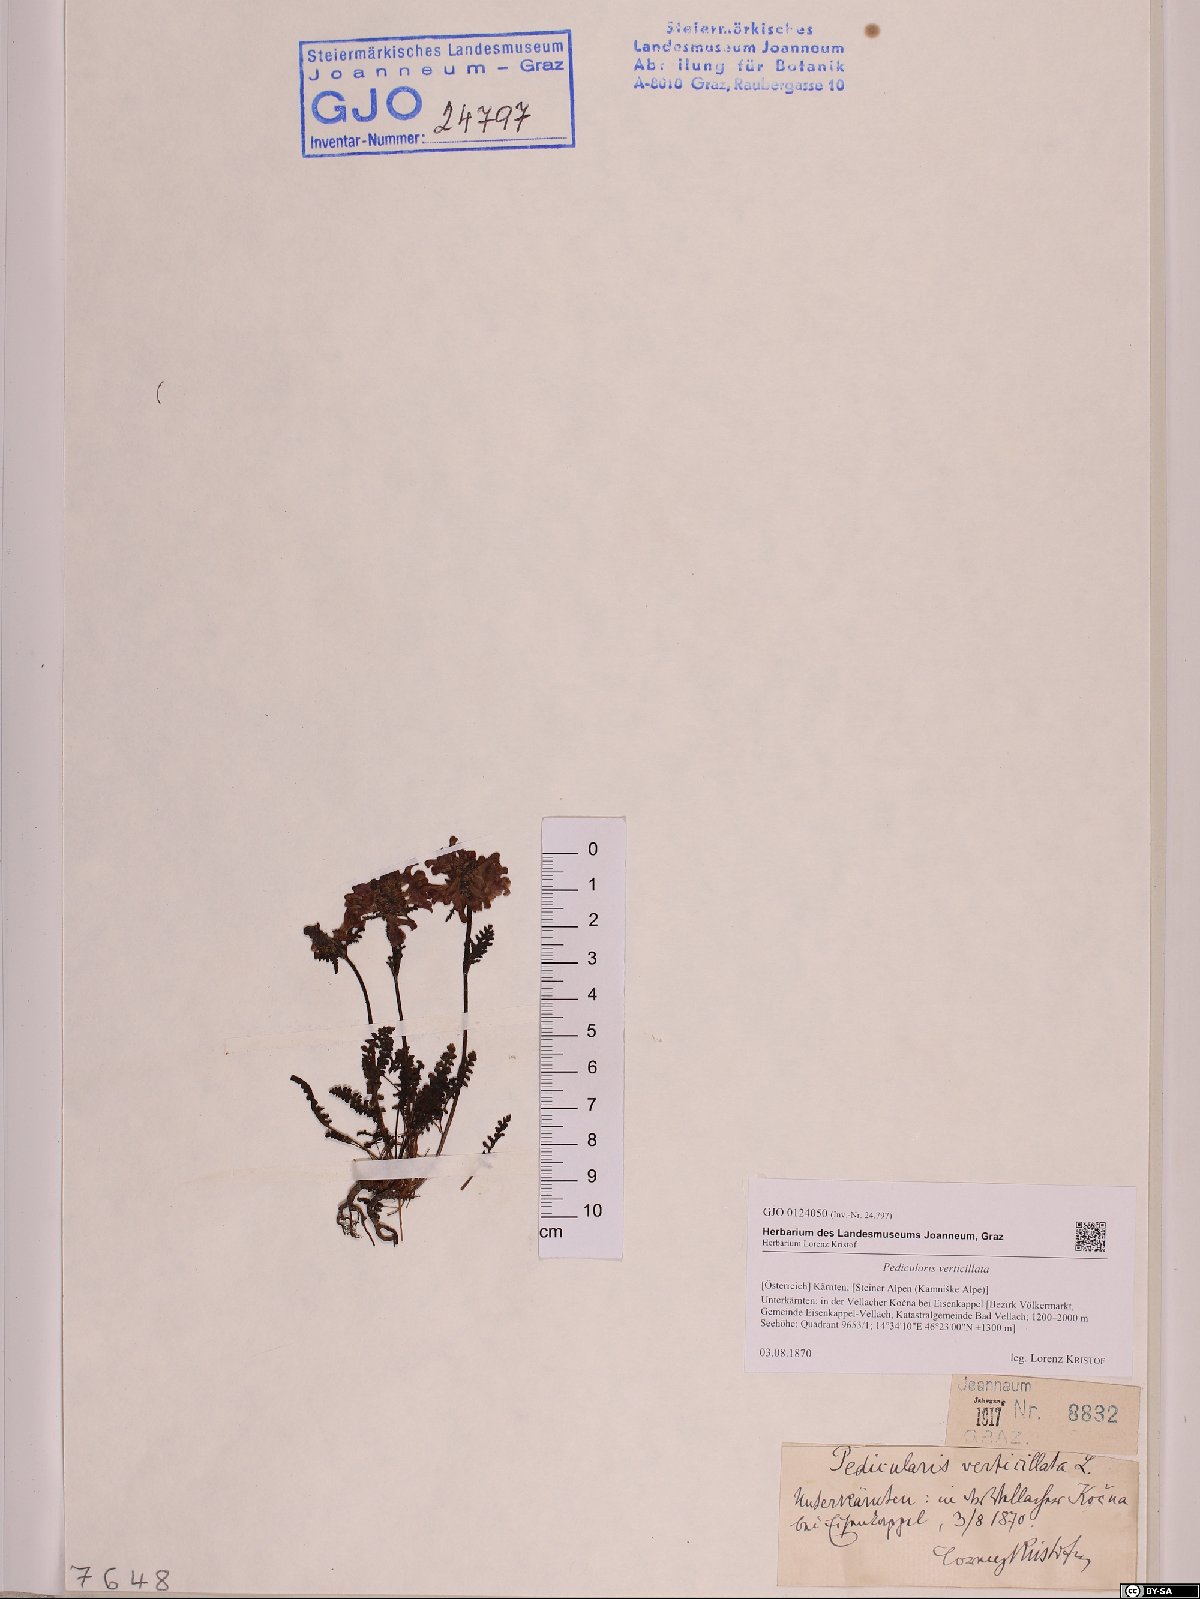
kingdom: Plantae
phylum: Tracheophyta
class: Magnoliopsida
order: Lamiales
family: Orobanchaceae
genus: Pedicularis
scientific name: Pedicularis verticillata
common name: Whorled lousewort
